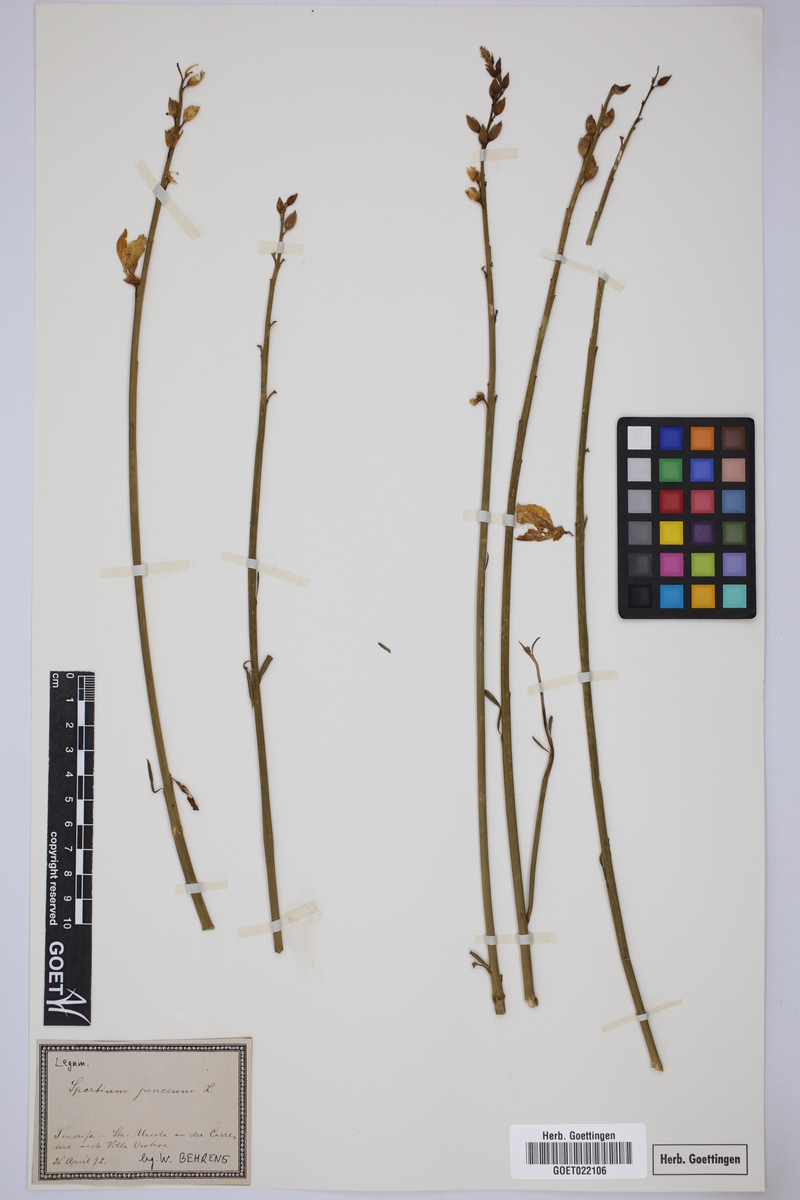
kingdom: Plantae
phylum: Tracheophyta
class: Magnoliopsida
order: Fabales
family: Fabaceae
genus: Spartium
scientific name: Spartium junceum
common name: Spanish broom
